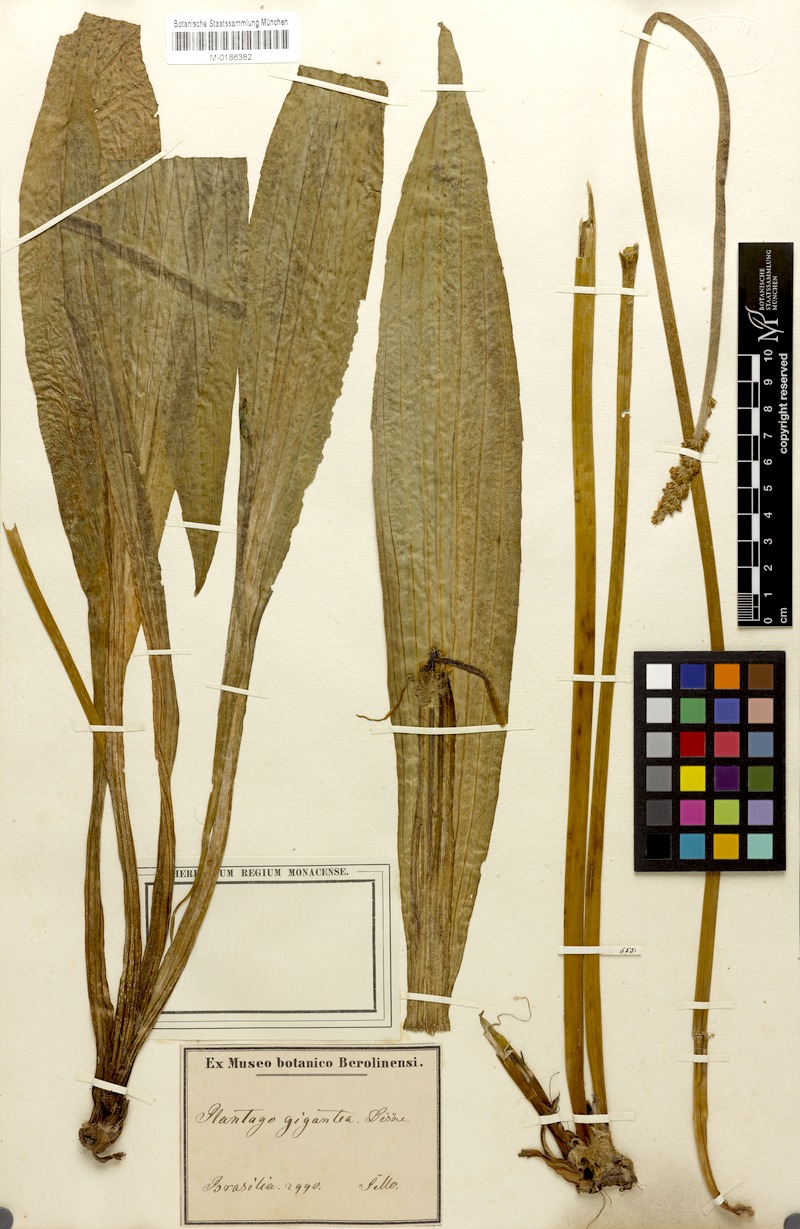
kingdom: Plantae
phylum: Tracheophyta
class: Magnoliopsida
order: Lamiales
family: Plantaginaceae
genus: Plantago
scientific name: Plantago australis
